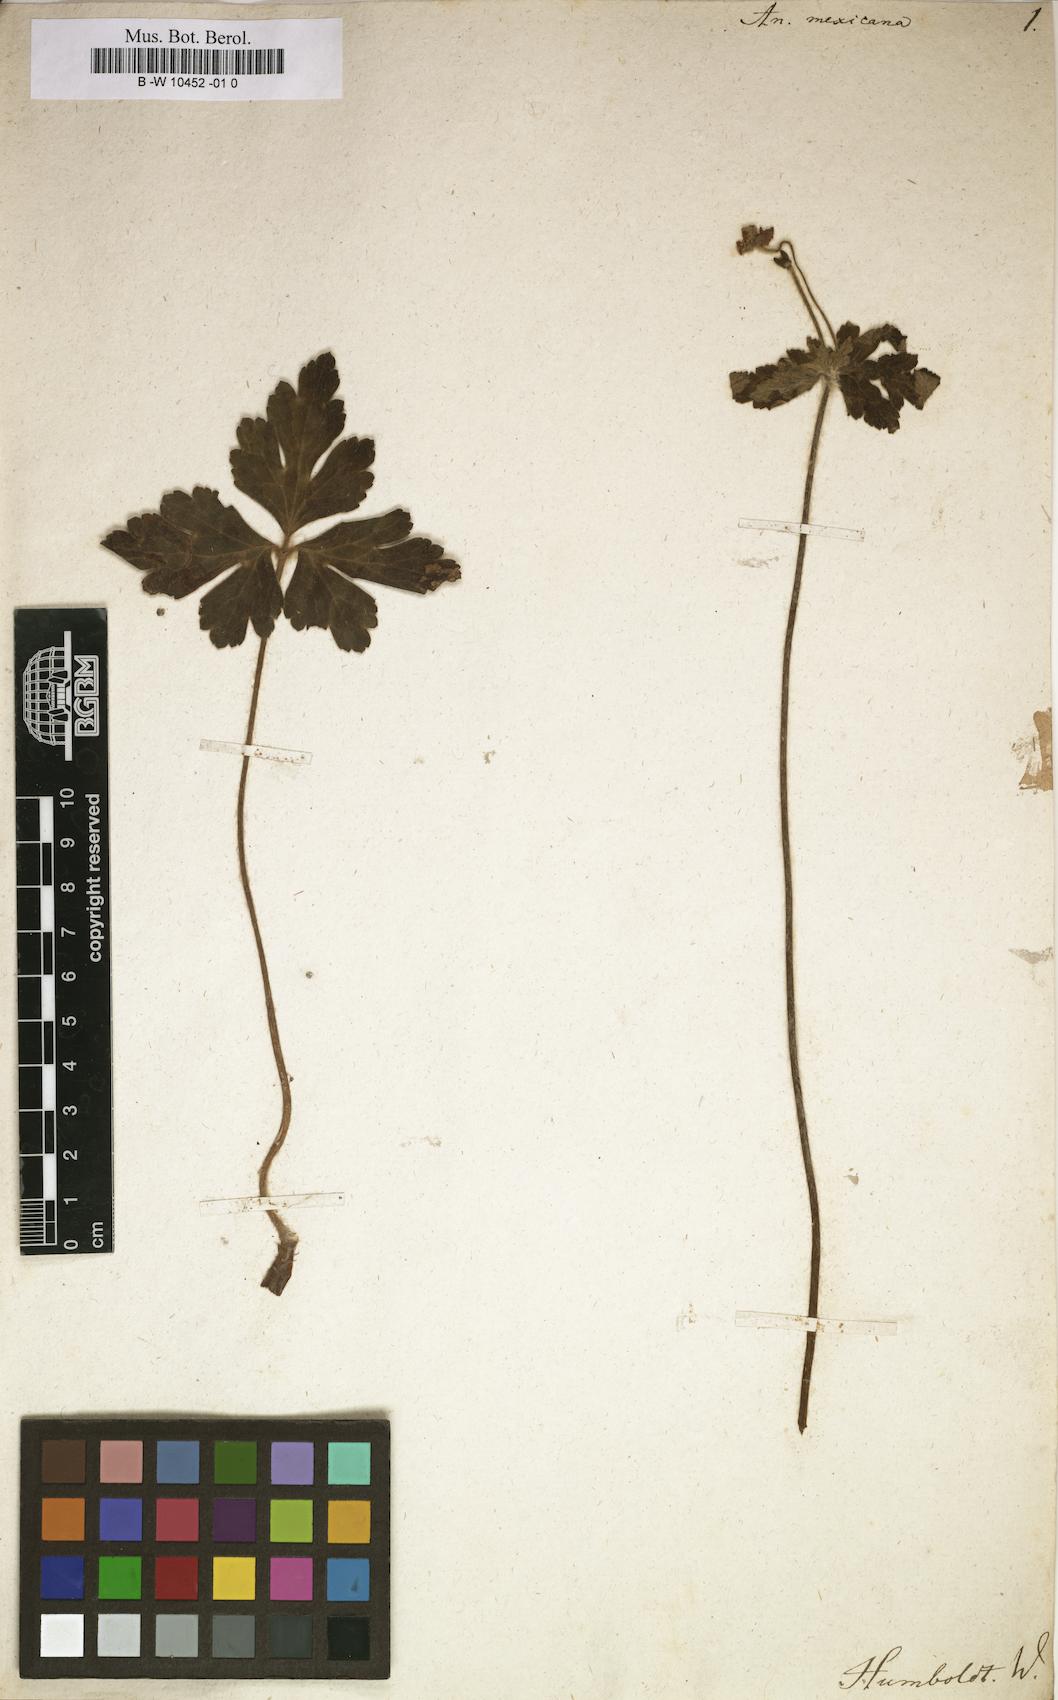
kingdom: Plantae
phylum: Tracheophyta
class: Magnoliopsida
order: Ranunculales
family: Ranunculaceae
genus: Knowltonia
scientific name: Knowltonia mexicana
